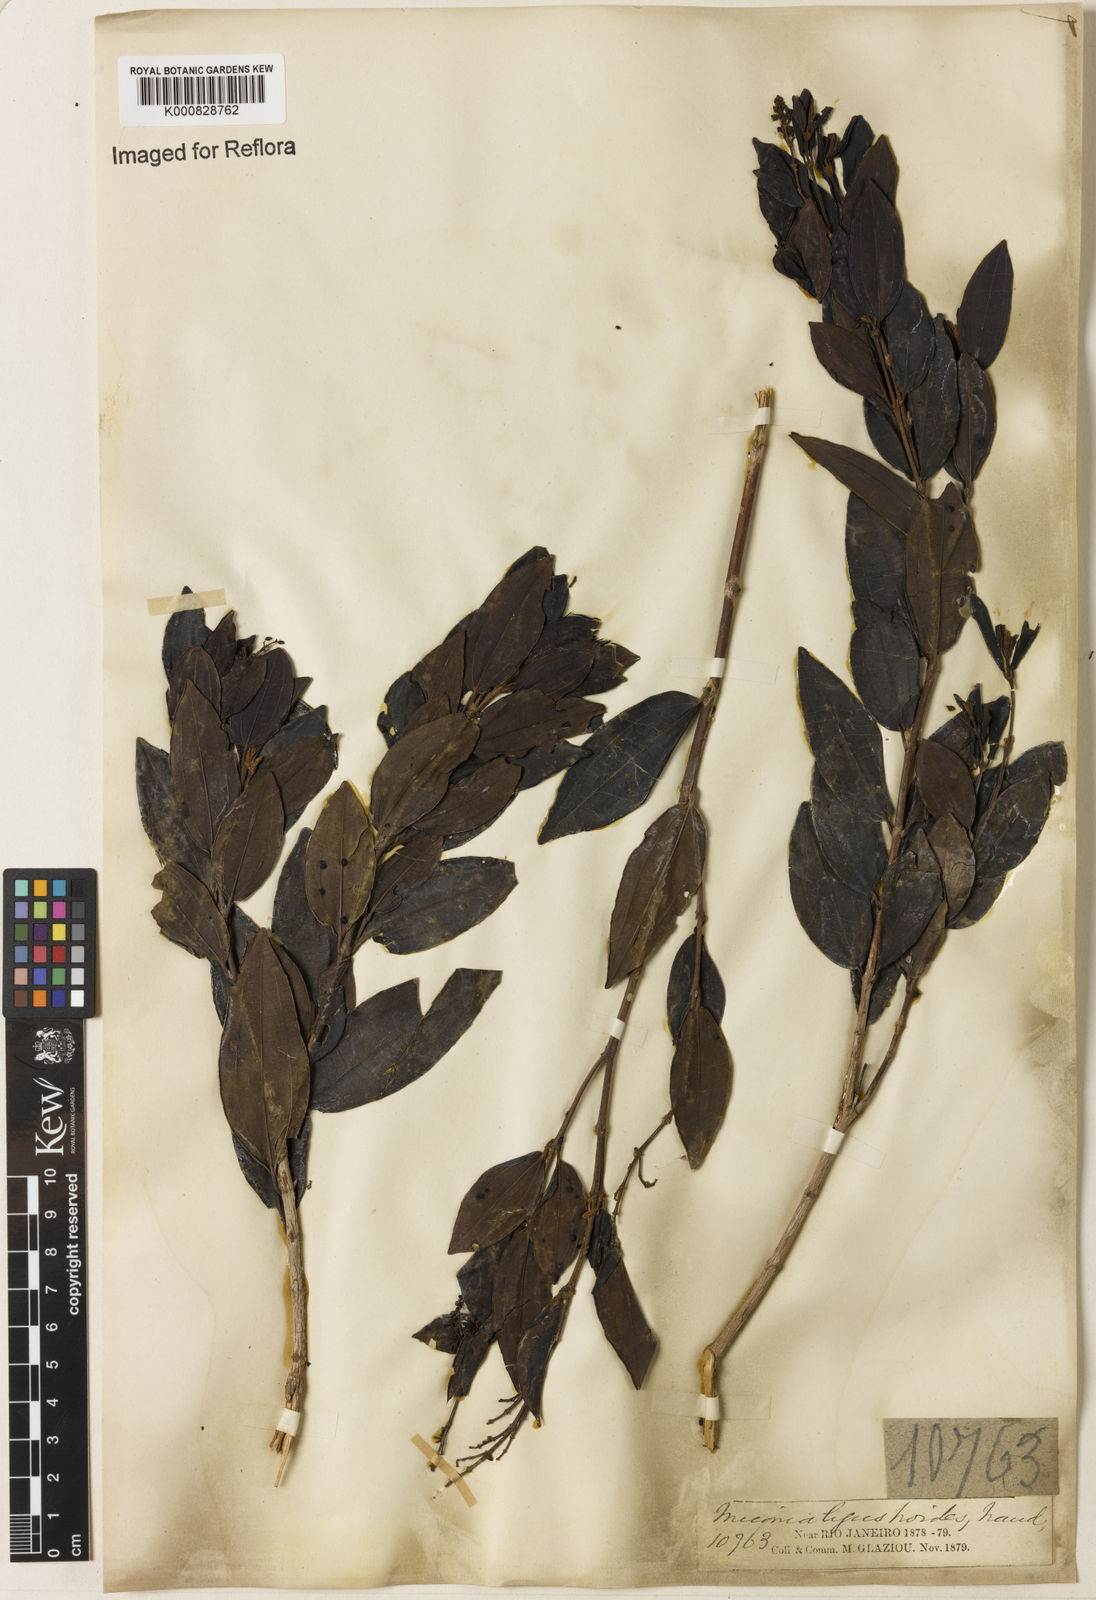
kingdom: Plantae
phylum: Tracheophyta
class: Magnoliopsida
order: Myrtales
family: Melastomataceae
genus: Miconia
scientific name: Miconia ligustroides
